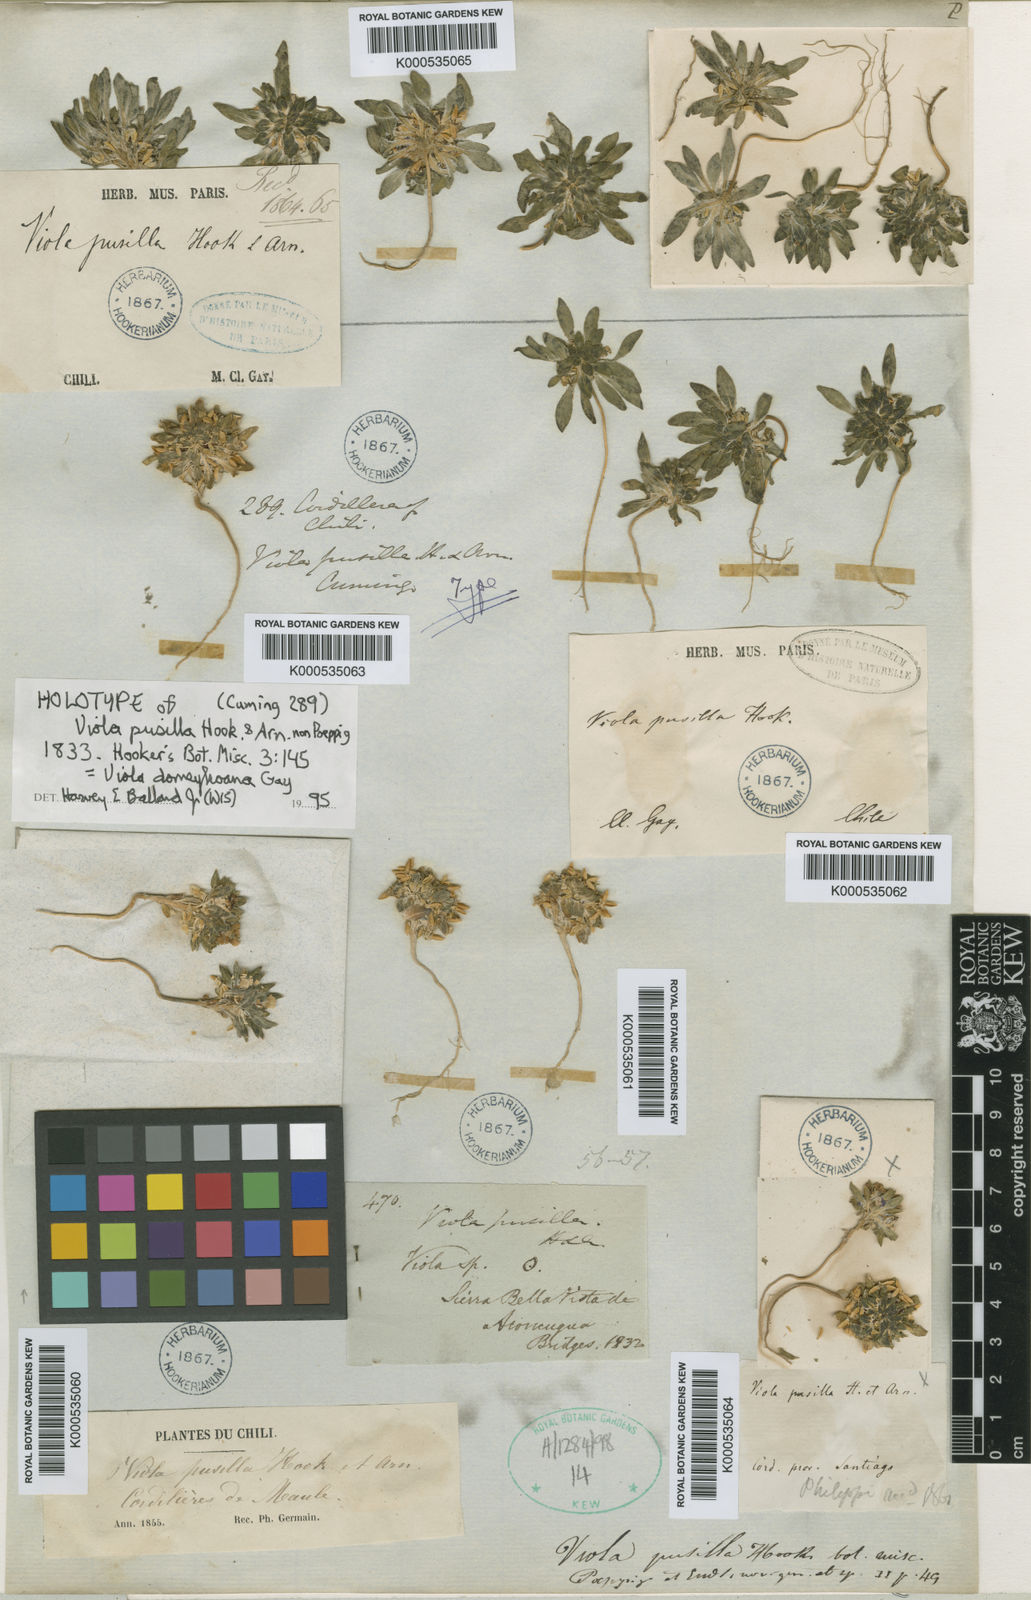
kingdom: Plantae
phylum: Tracheophyta
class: Magnoliopsida
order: Malpighiales
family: Violaceae
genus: Viola
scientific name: Viola
